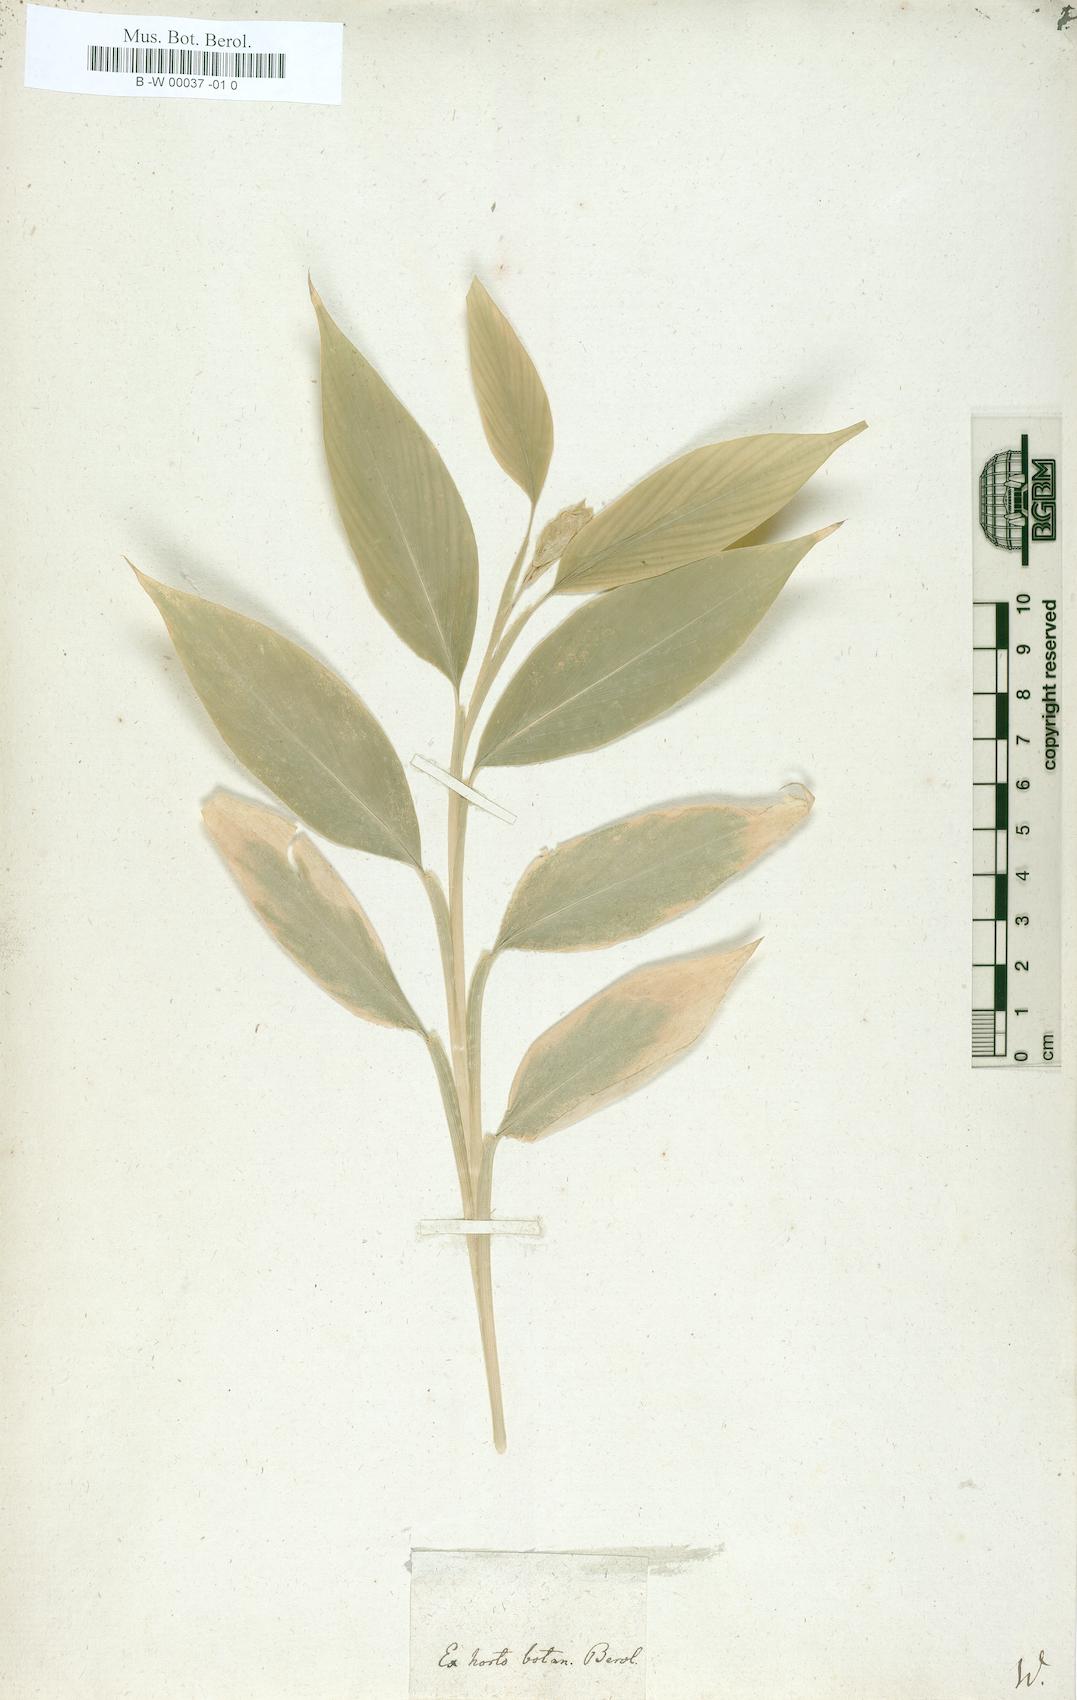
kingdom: Plantae
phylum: Tracheophyta
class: Liliopsida
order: Zingiberales
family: Zingiberaceae
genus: Globba
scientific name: Globba marantina
